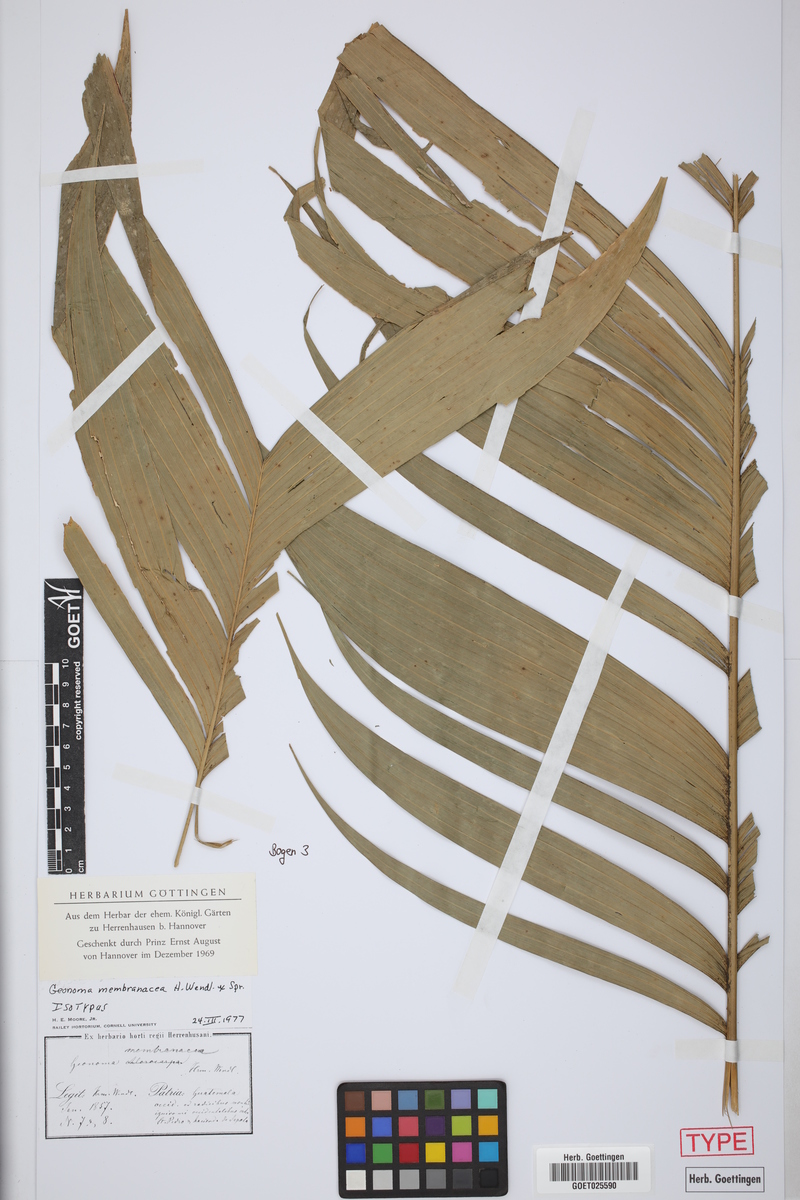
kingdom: Plantae
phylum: Tracheophyta
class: Liliopsida
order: Arecales
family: Arecaceae
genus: Geonoma
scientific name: Geonoma pinnatifrons
